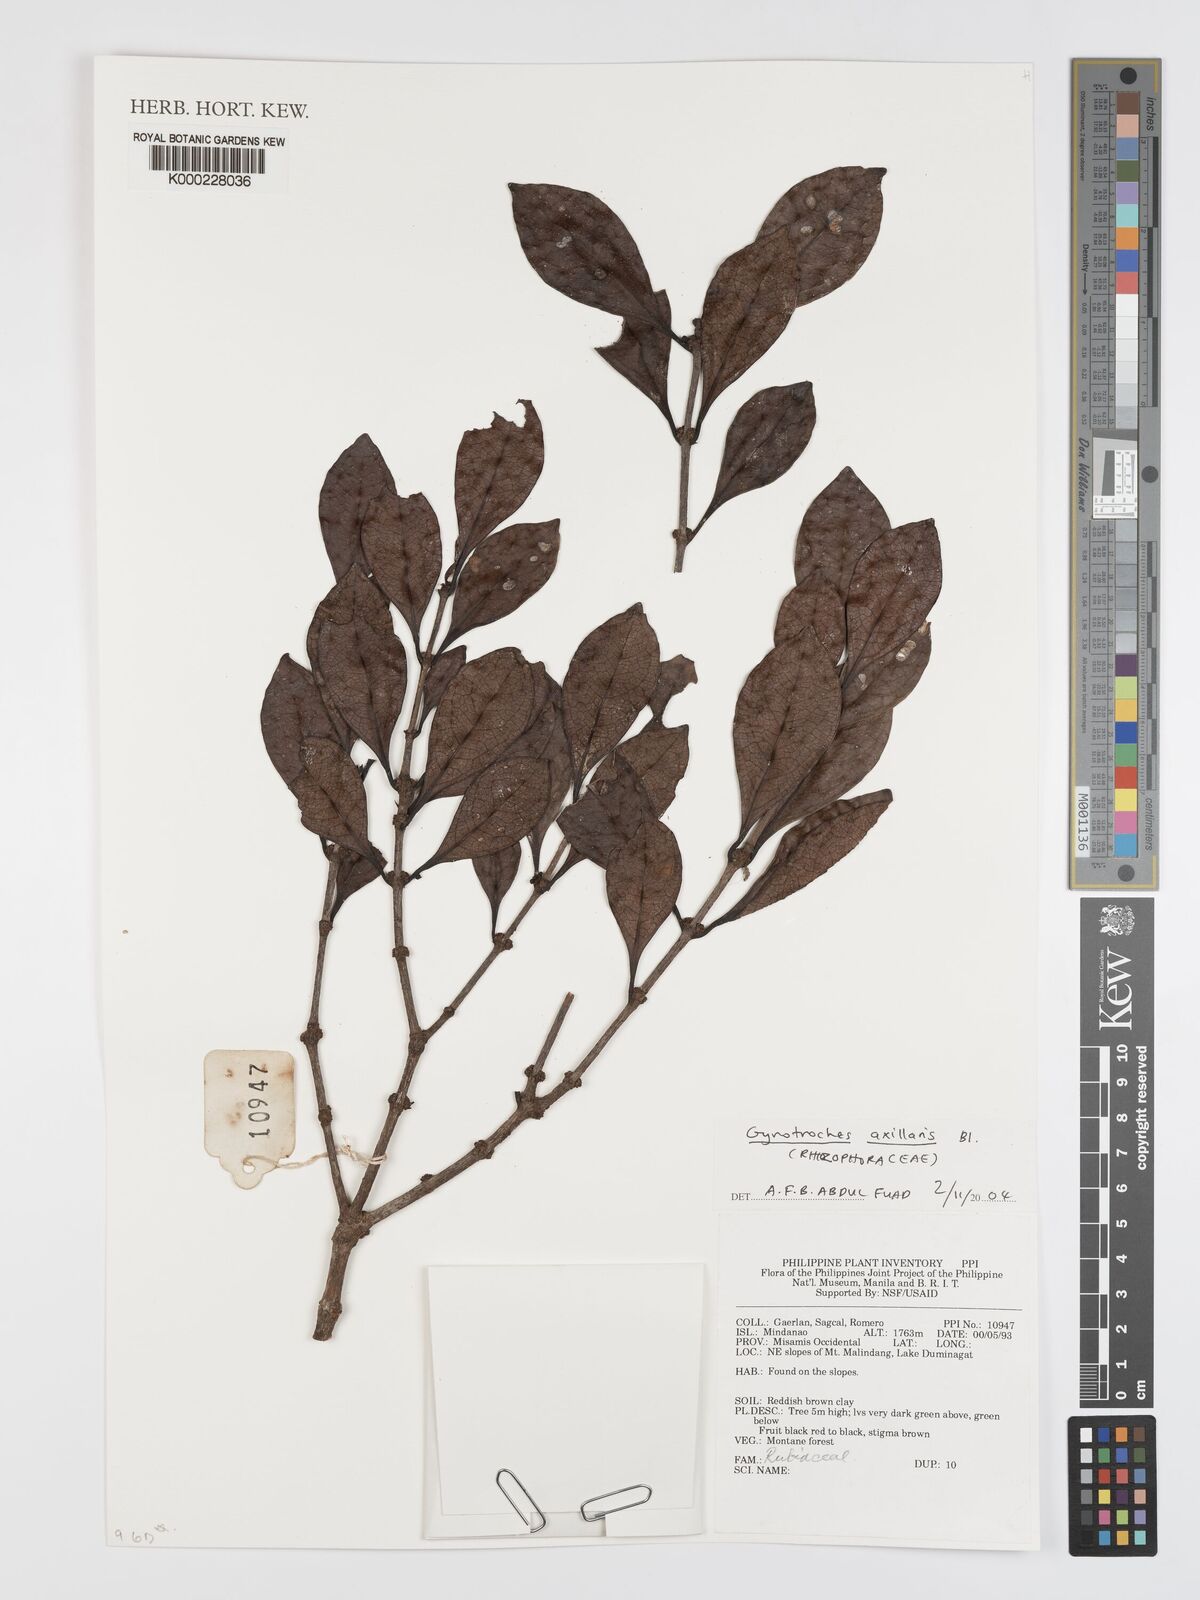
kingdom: Plantae
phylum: Tracheophyta
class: Magnoliopsida
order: Malpighiales
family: Rhizophoraceae
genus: Gynotroches
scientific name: Gynotroches axillaris
